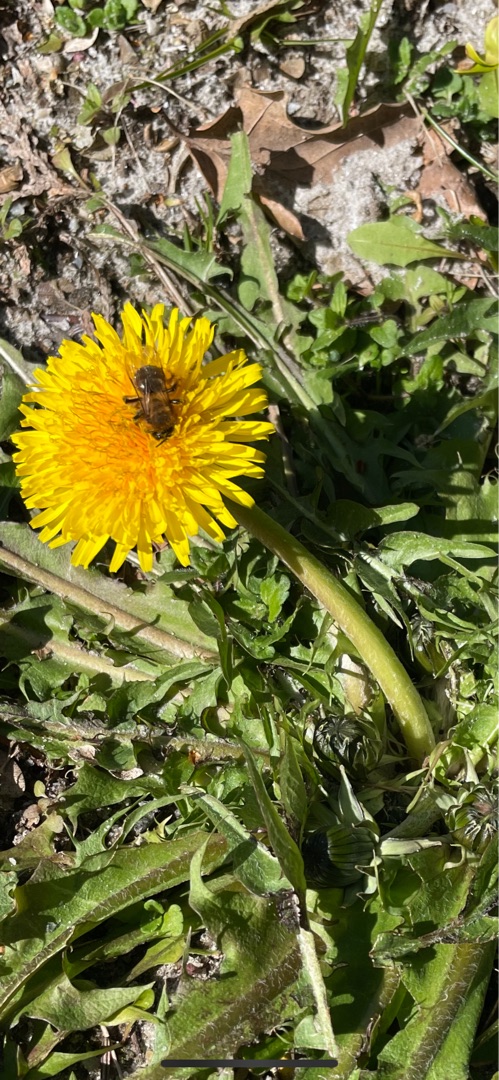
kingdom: Plantae
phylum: Tracheophyta
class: Magnoliopsida
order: Asterales
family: Asteraceae
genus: Taraxacum
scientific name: Taraxacum
